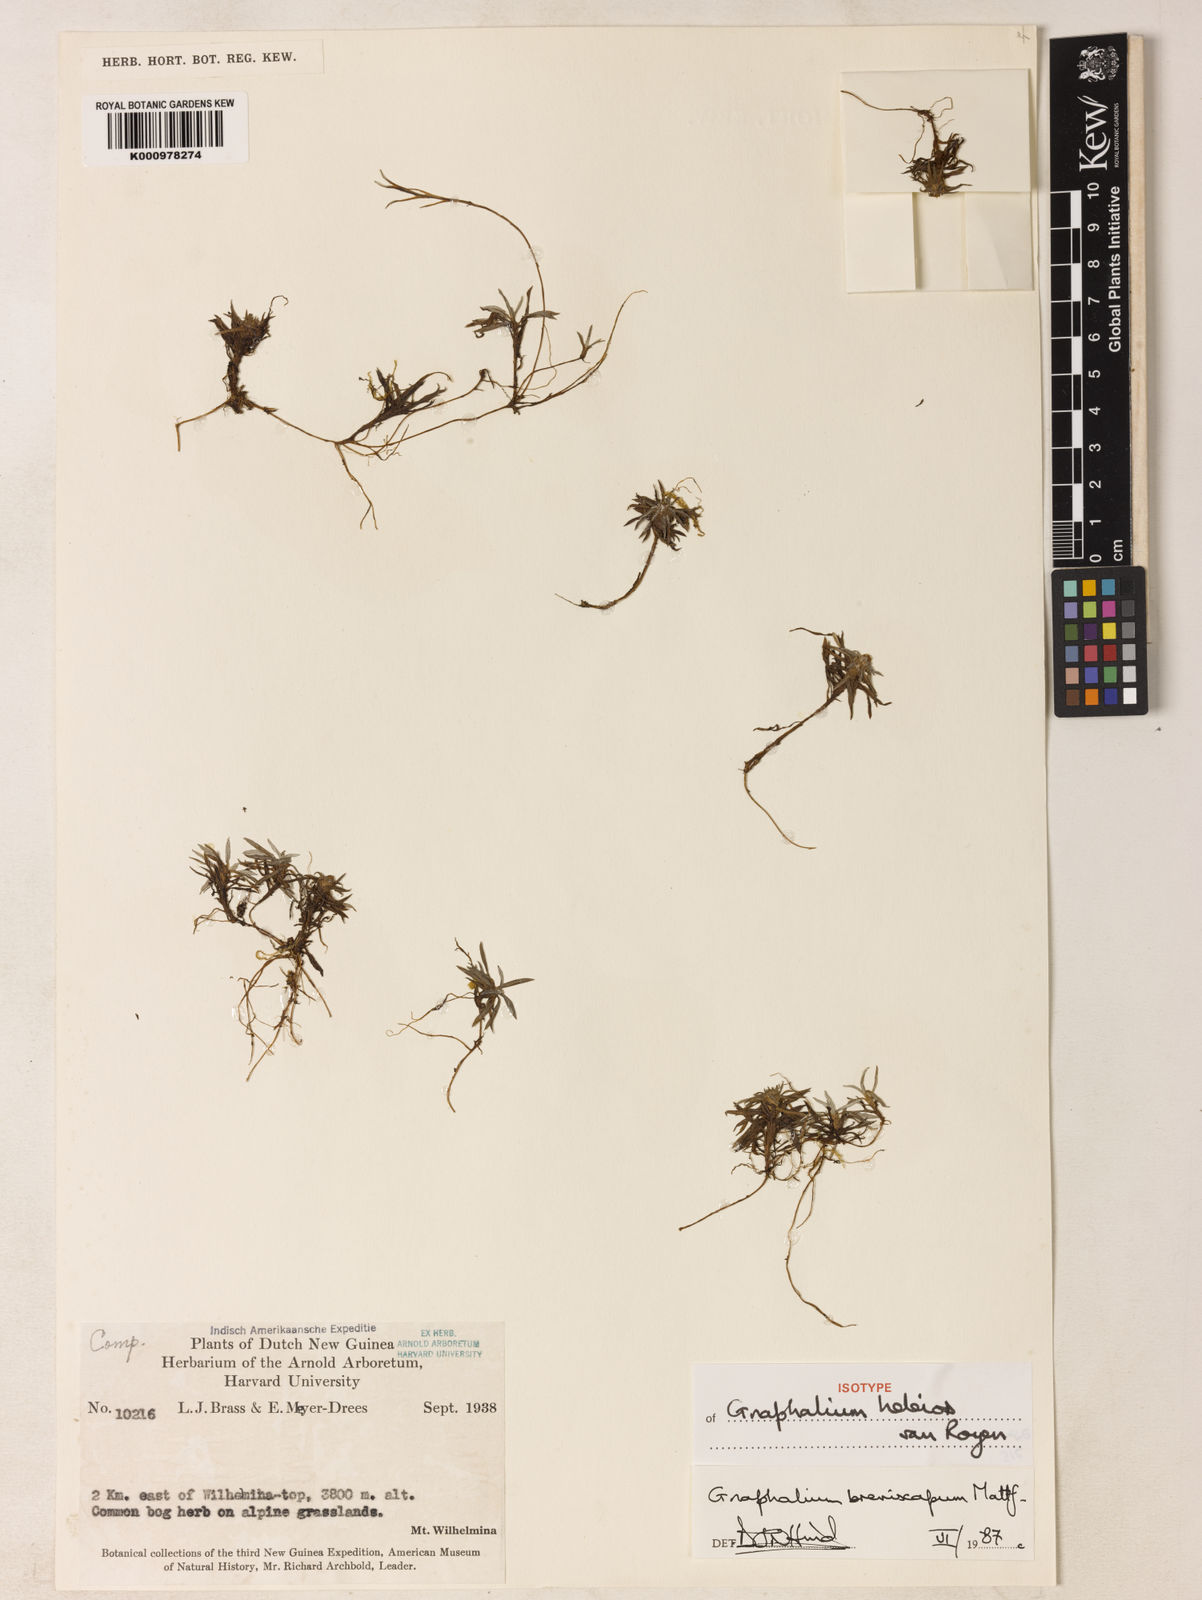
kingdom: Plantae
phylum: Tracheophyta
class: Magnoliopsida
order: Asterales
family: Asteraceae
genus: Gnaphalium
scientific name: Gnaphalium heleios
